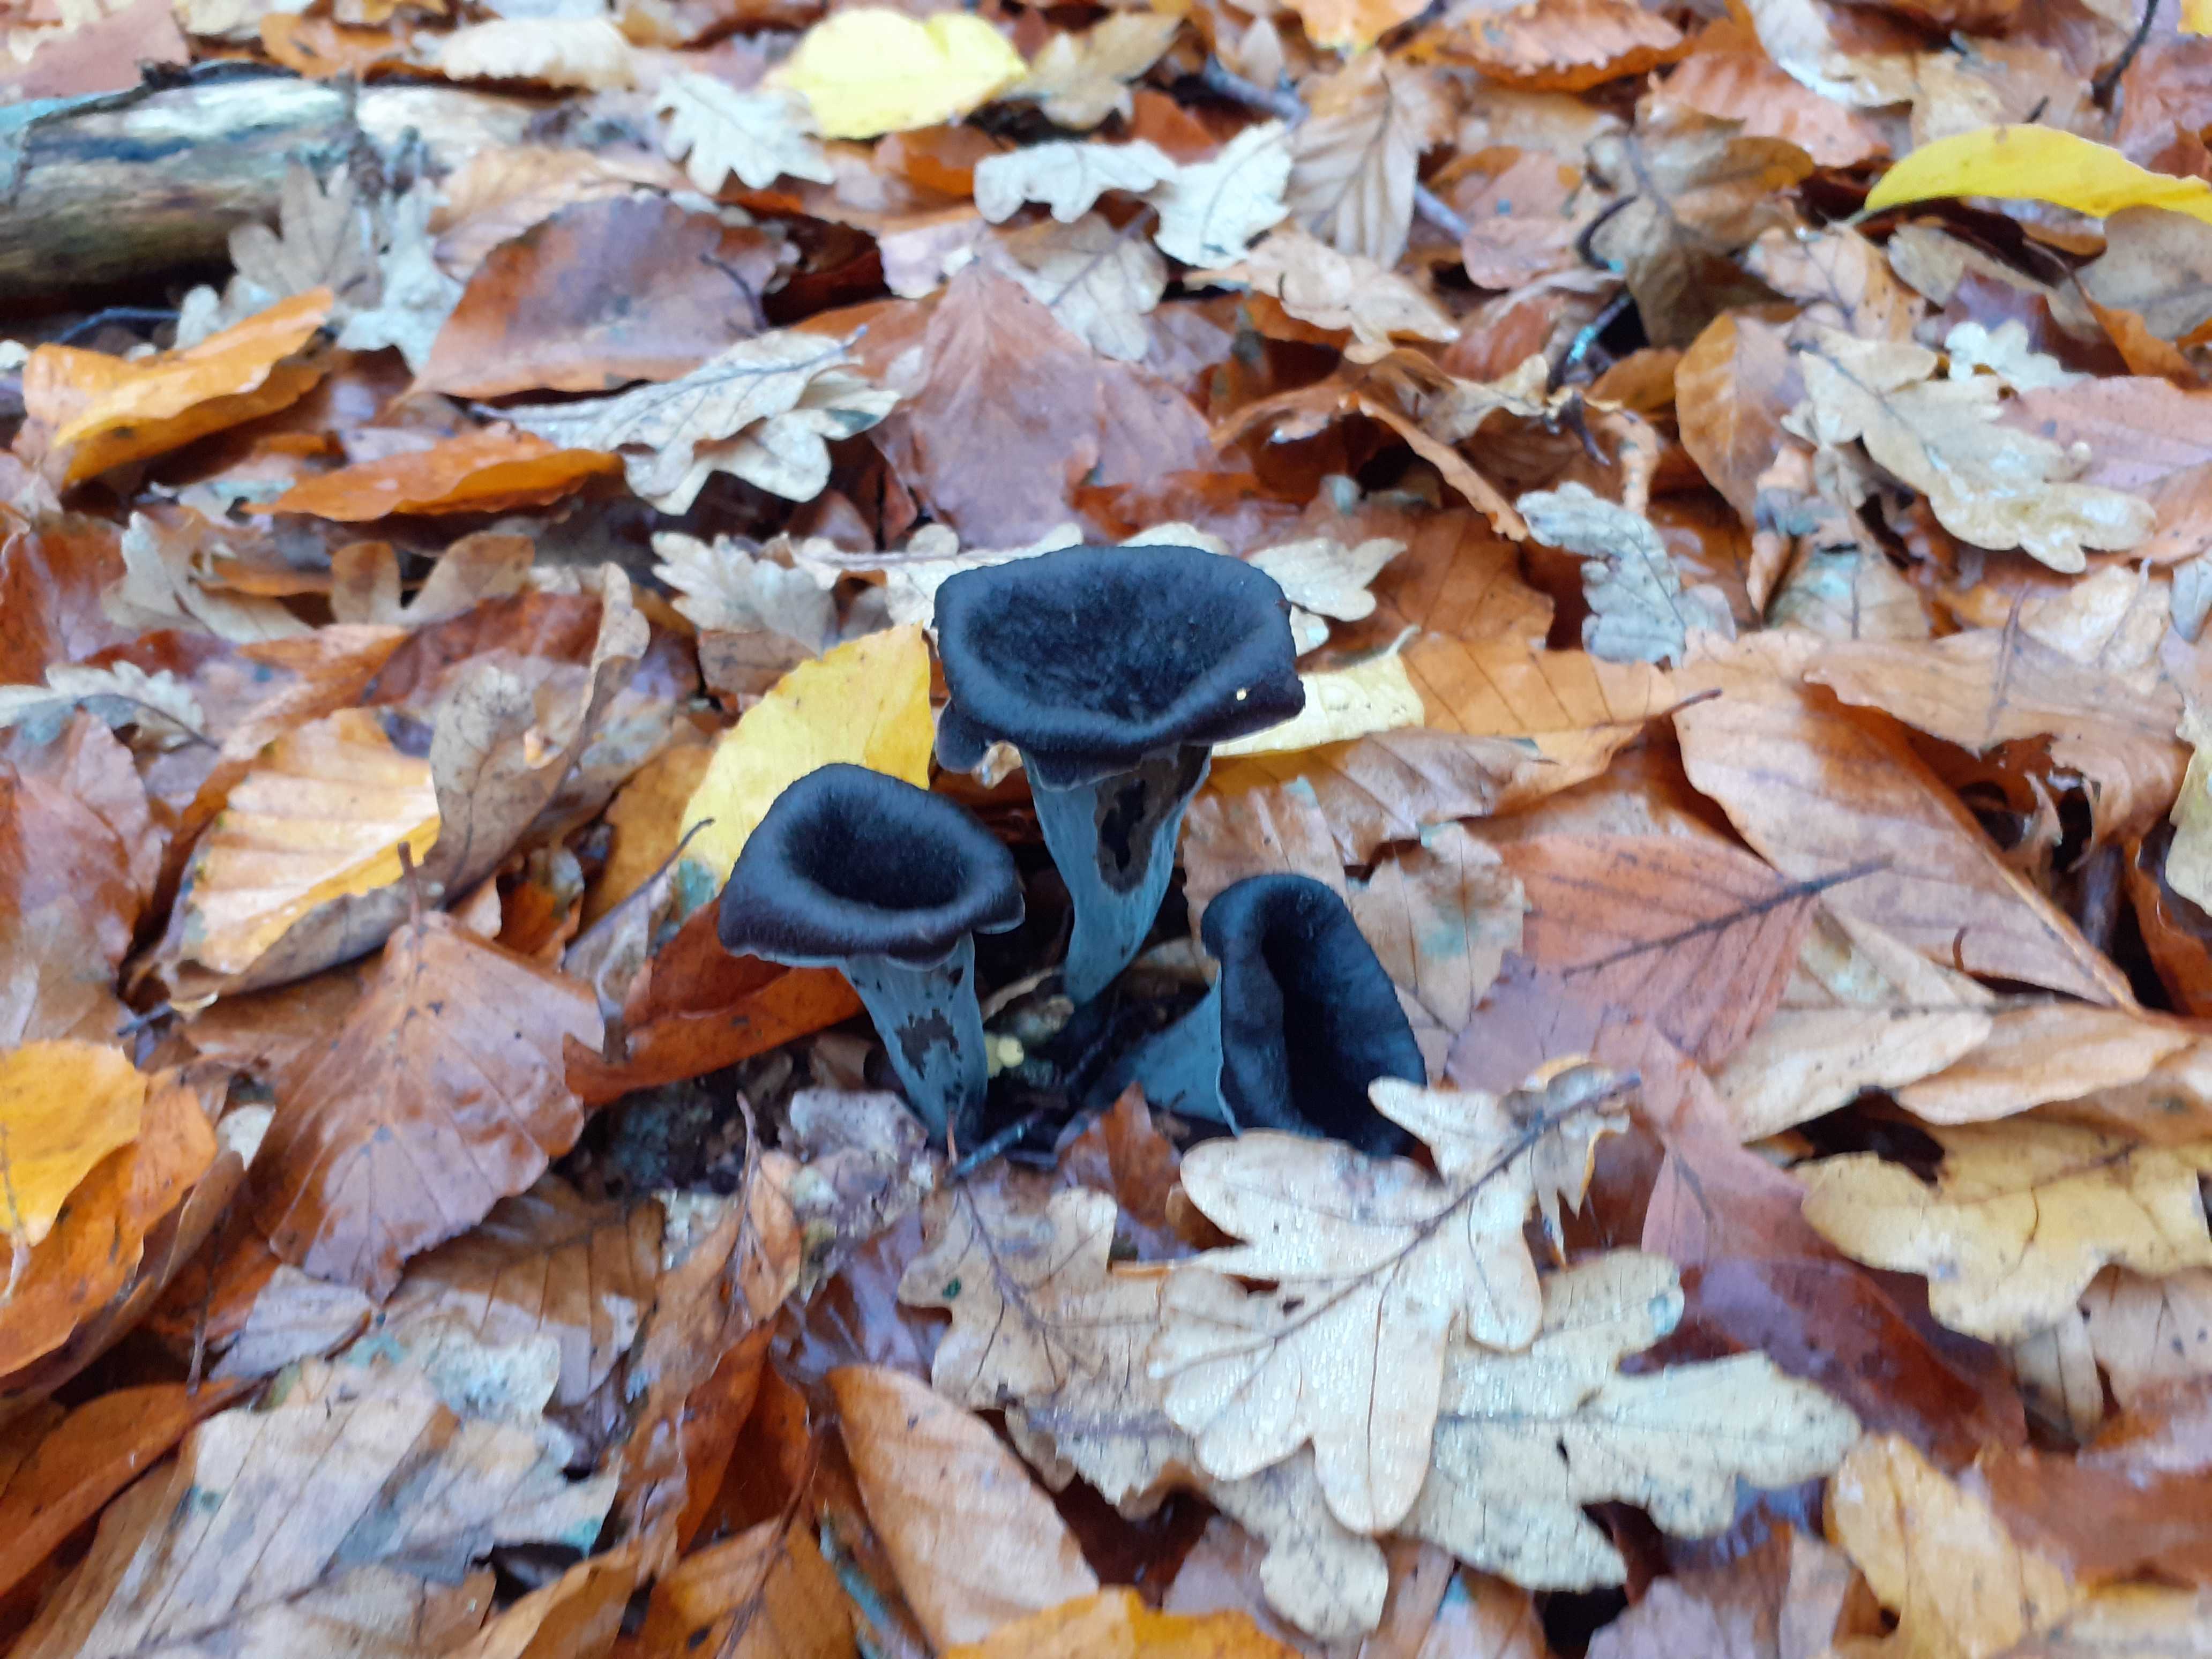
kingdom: Fungi
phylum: Basidiomycota
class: Agaricomycetes
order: Cantharellales
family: Hydnaceae
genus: Craterellus
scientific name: Craterellus cornucopioides
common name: trompetsvamp
